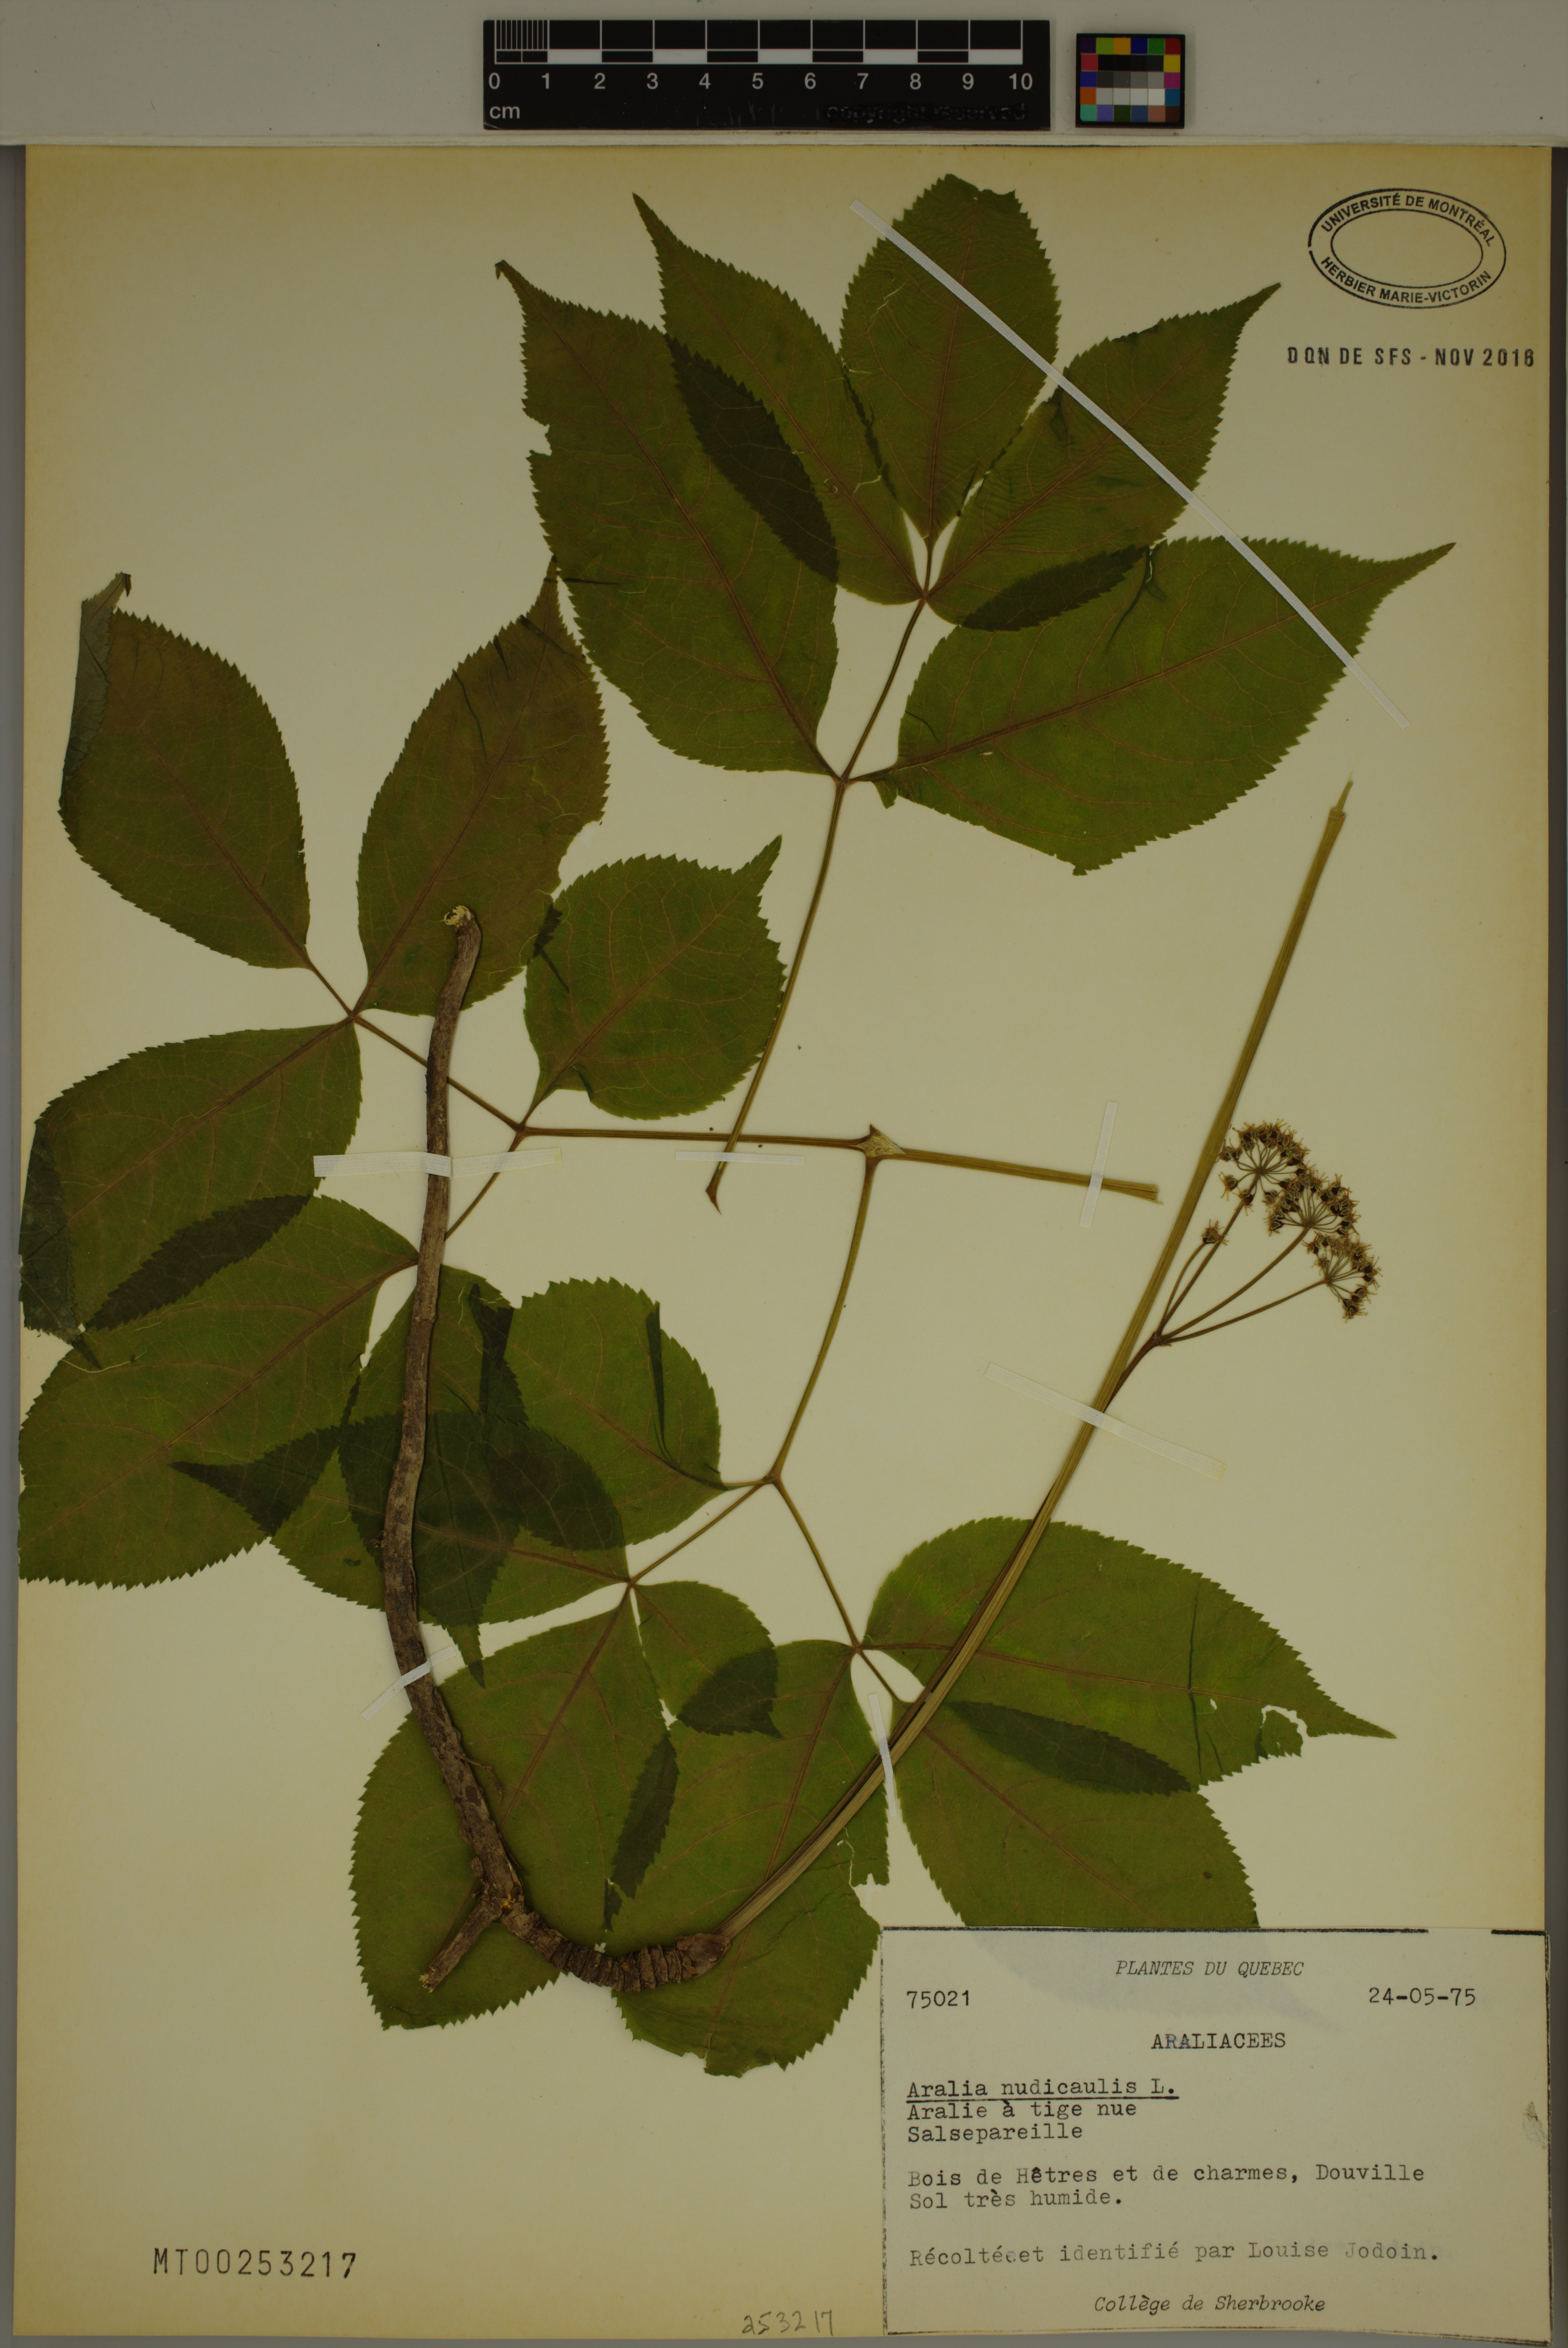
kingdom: Plantae
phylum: Tracheophyta
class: Magnoliopsida
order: Apiales
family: Araliaceae
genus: Aralia
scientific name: Aralia nudicaulis
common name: Wild sarsaparilla
